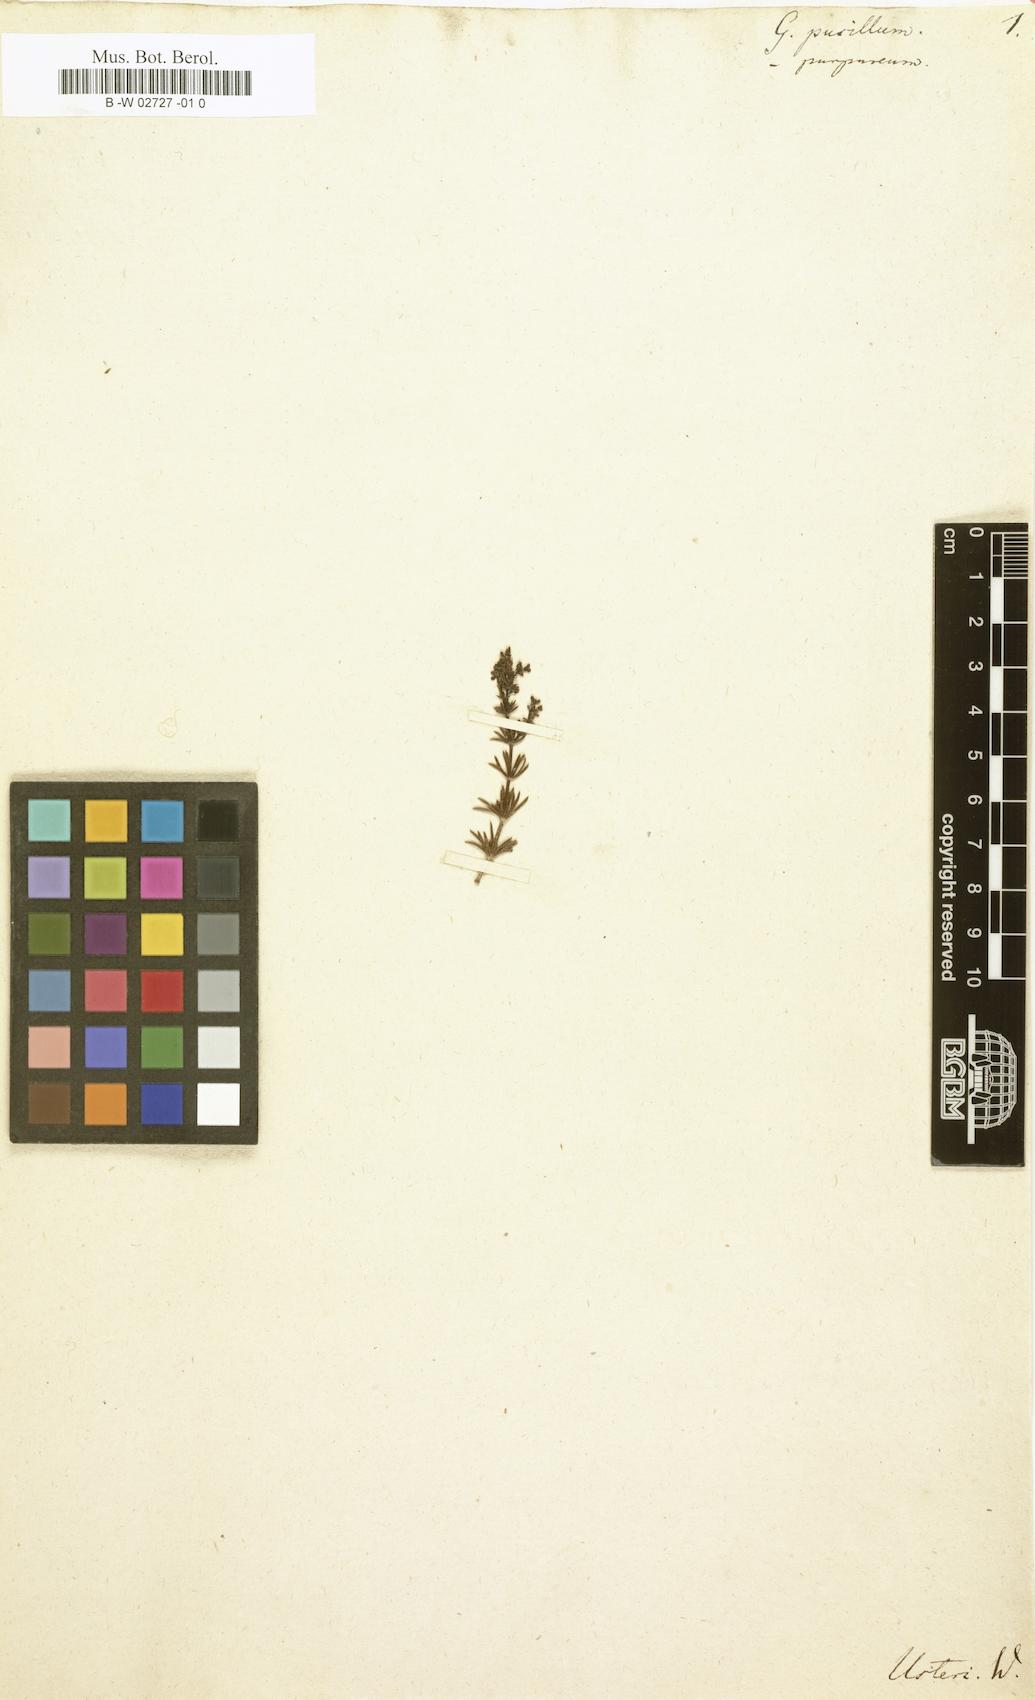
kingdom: Plantae
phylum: Tracheophyta
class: Magnoliopsida
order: Gentianales
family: Rubiaceae
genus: Galium
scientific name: Galium pusillum
